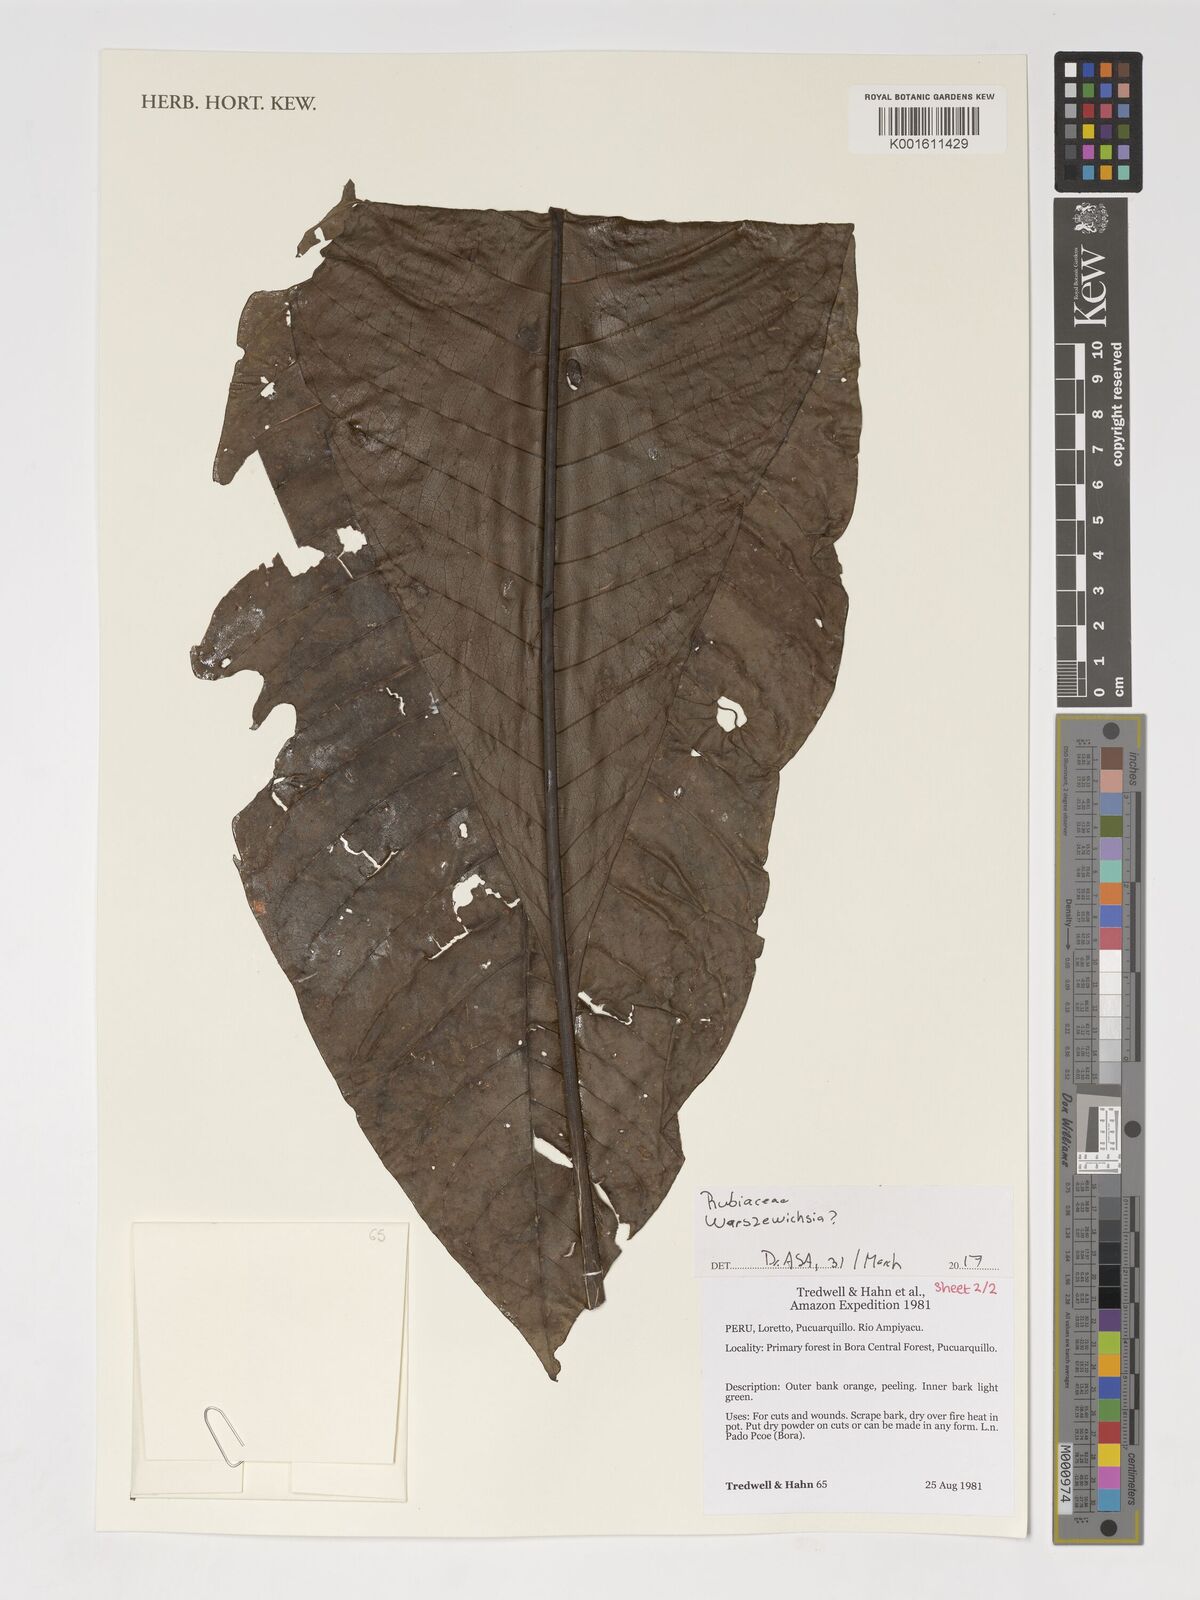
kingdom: Plantae
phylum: Tracheophyta
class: Magnoliopsida
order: Gentianales
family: Rubiaceae
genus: Warszewiczia
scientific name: Warszewiczia
